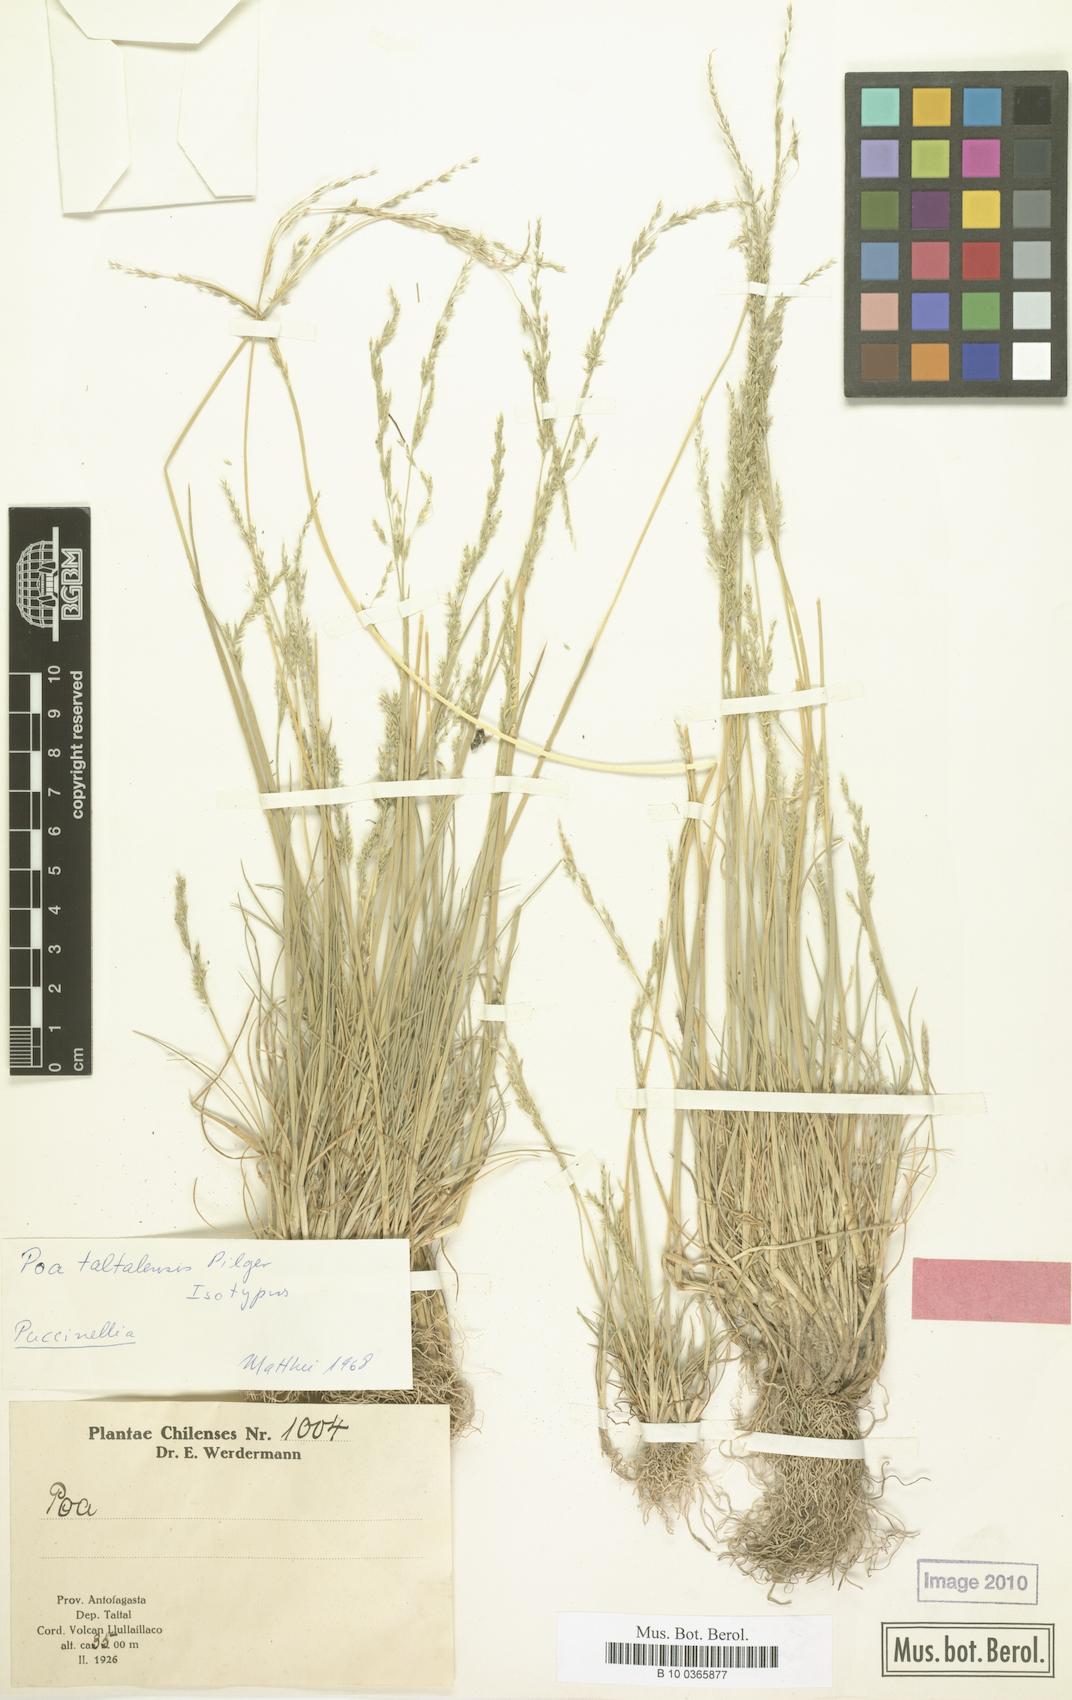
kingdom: Plantae
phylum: Tracheophyta
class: Liliopsida
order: Poales
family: Poaceae
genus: Puccinellia
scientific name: Puccinellia frigida
